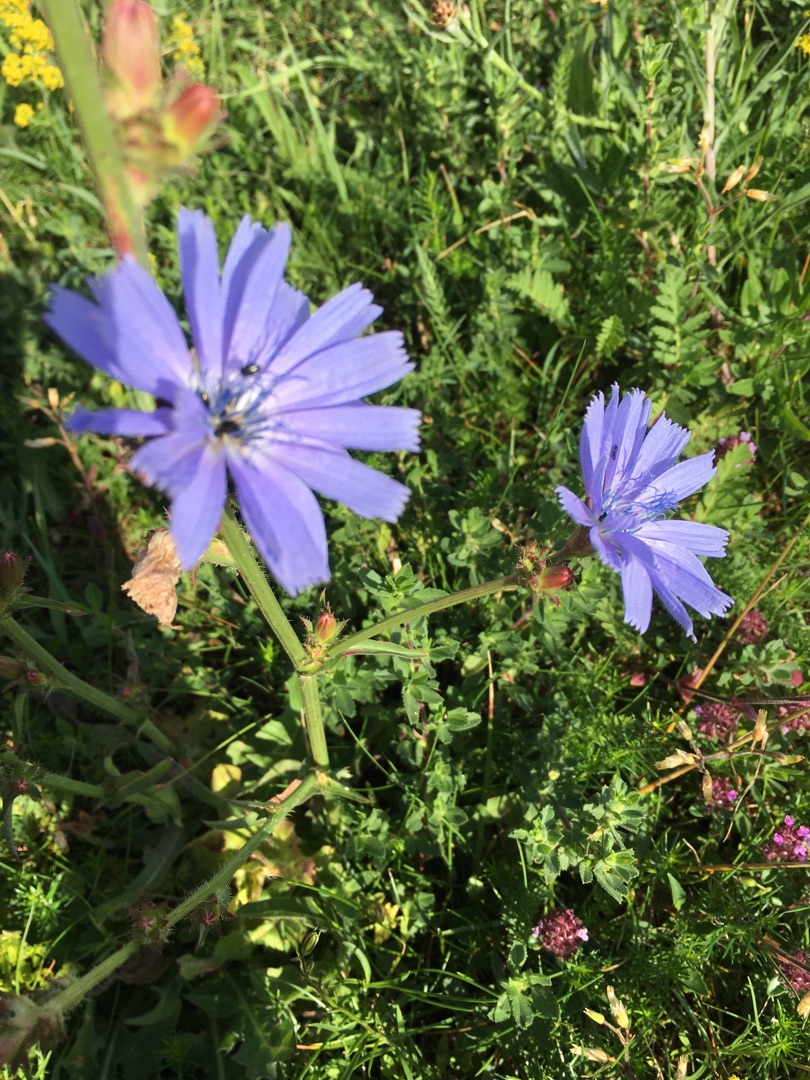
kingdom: Plantae
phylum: Tracheophyta
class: Magnoliopsida
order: Asterales
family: Asteraceae
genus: Cichorium
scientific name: Cichorium intybus
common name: Cikorie
